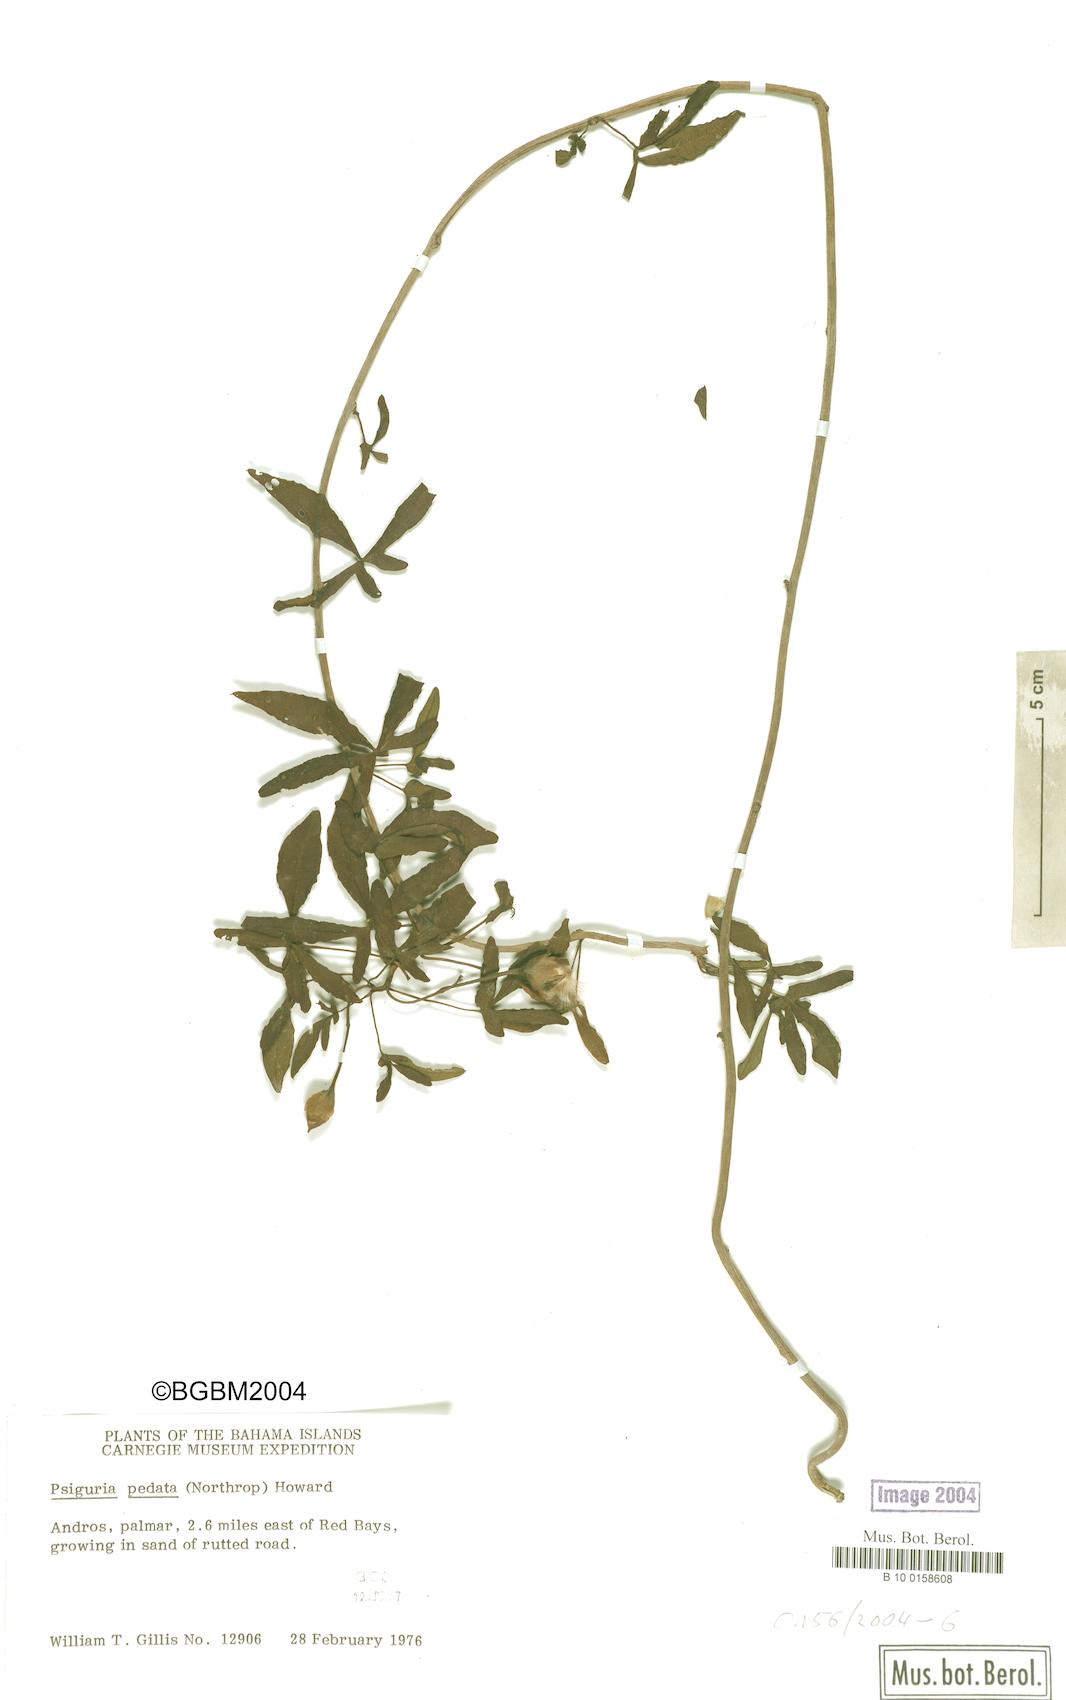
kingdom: Plantae
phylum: Tracheophyta
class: Magnoliopsida
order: Solanales
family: Convolvulaceae
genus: Merremia
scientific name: Merremia
